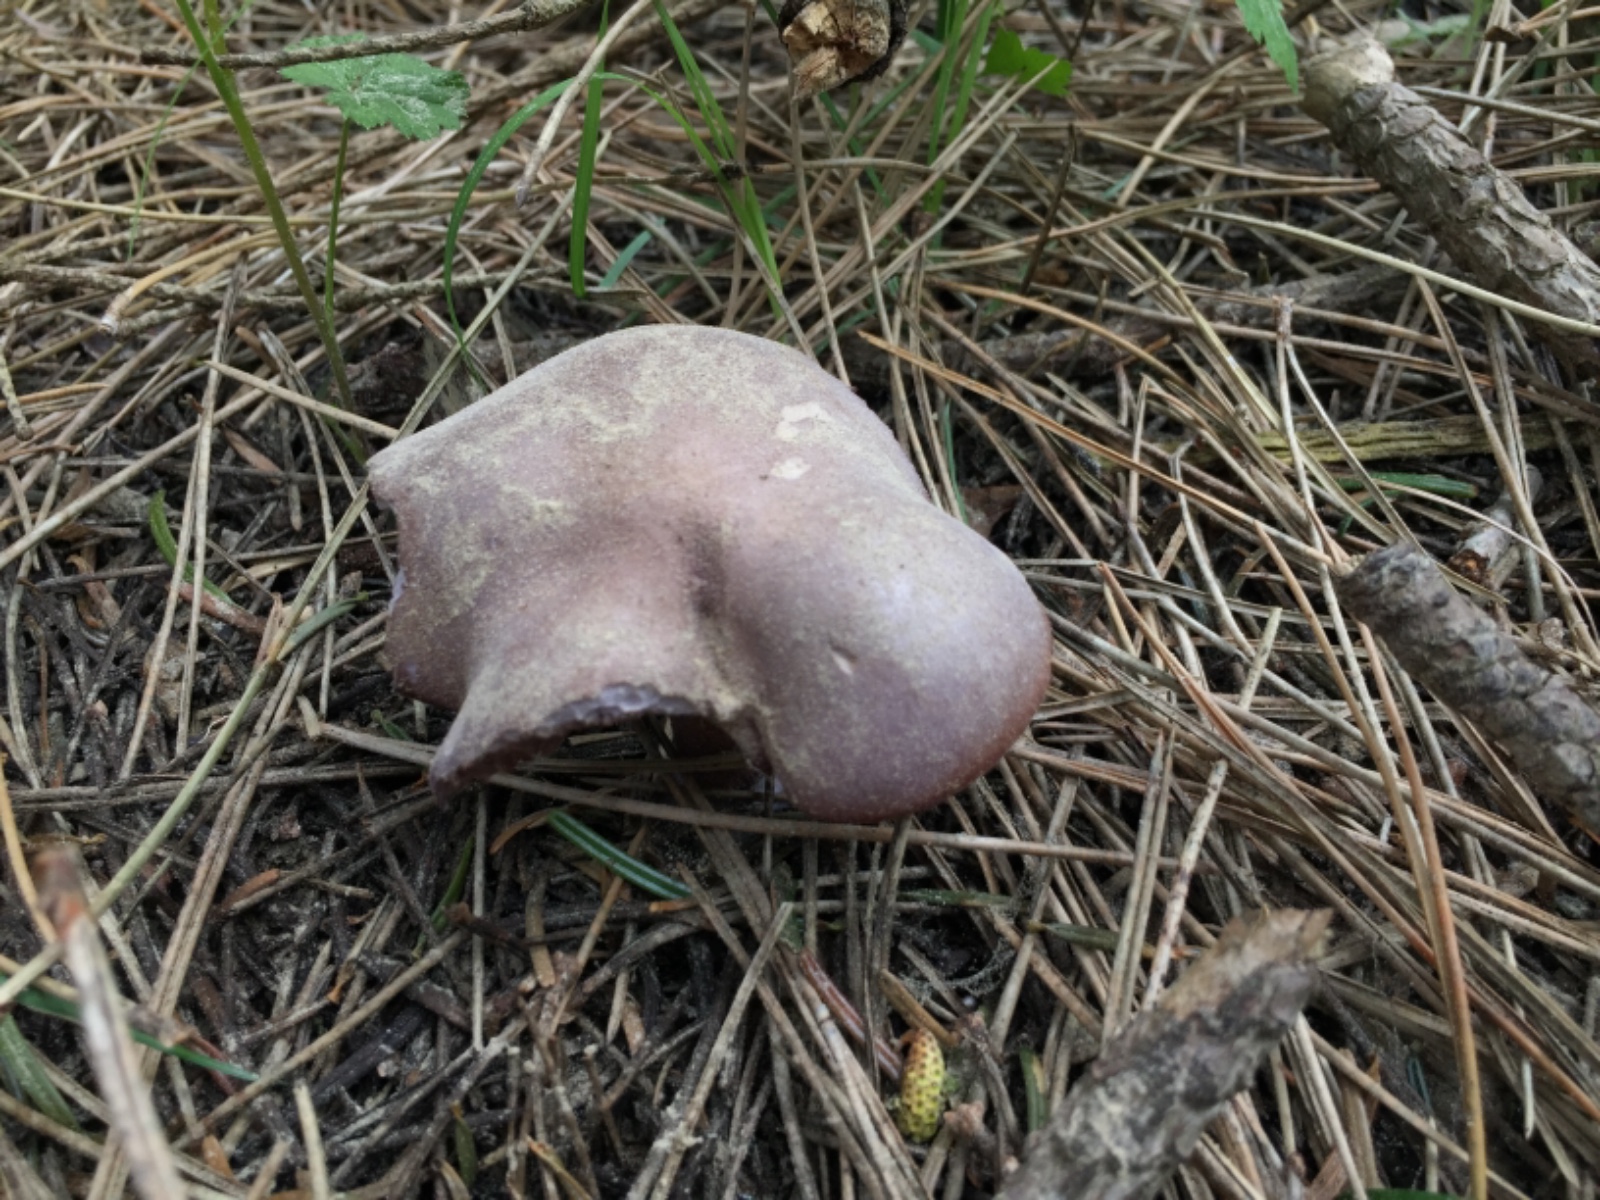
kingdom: Fungi
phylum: Basidiomycota
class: Agaricomycetes
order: Agaricales
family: Tricholomataceae
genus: Lepista
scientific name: Lepista nuda
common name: violet hekseringshat
